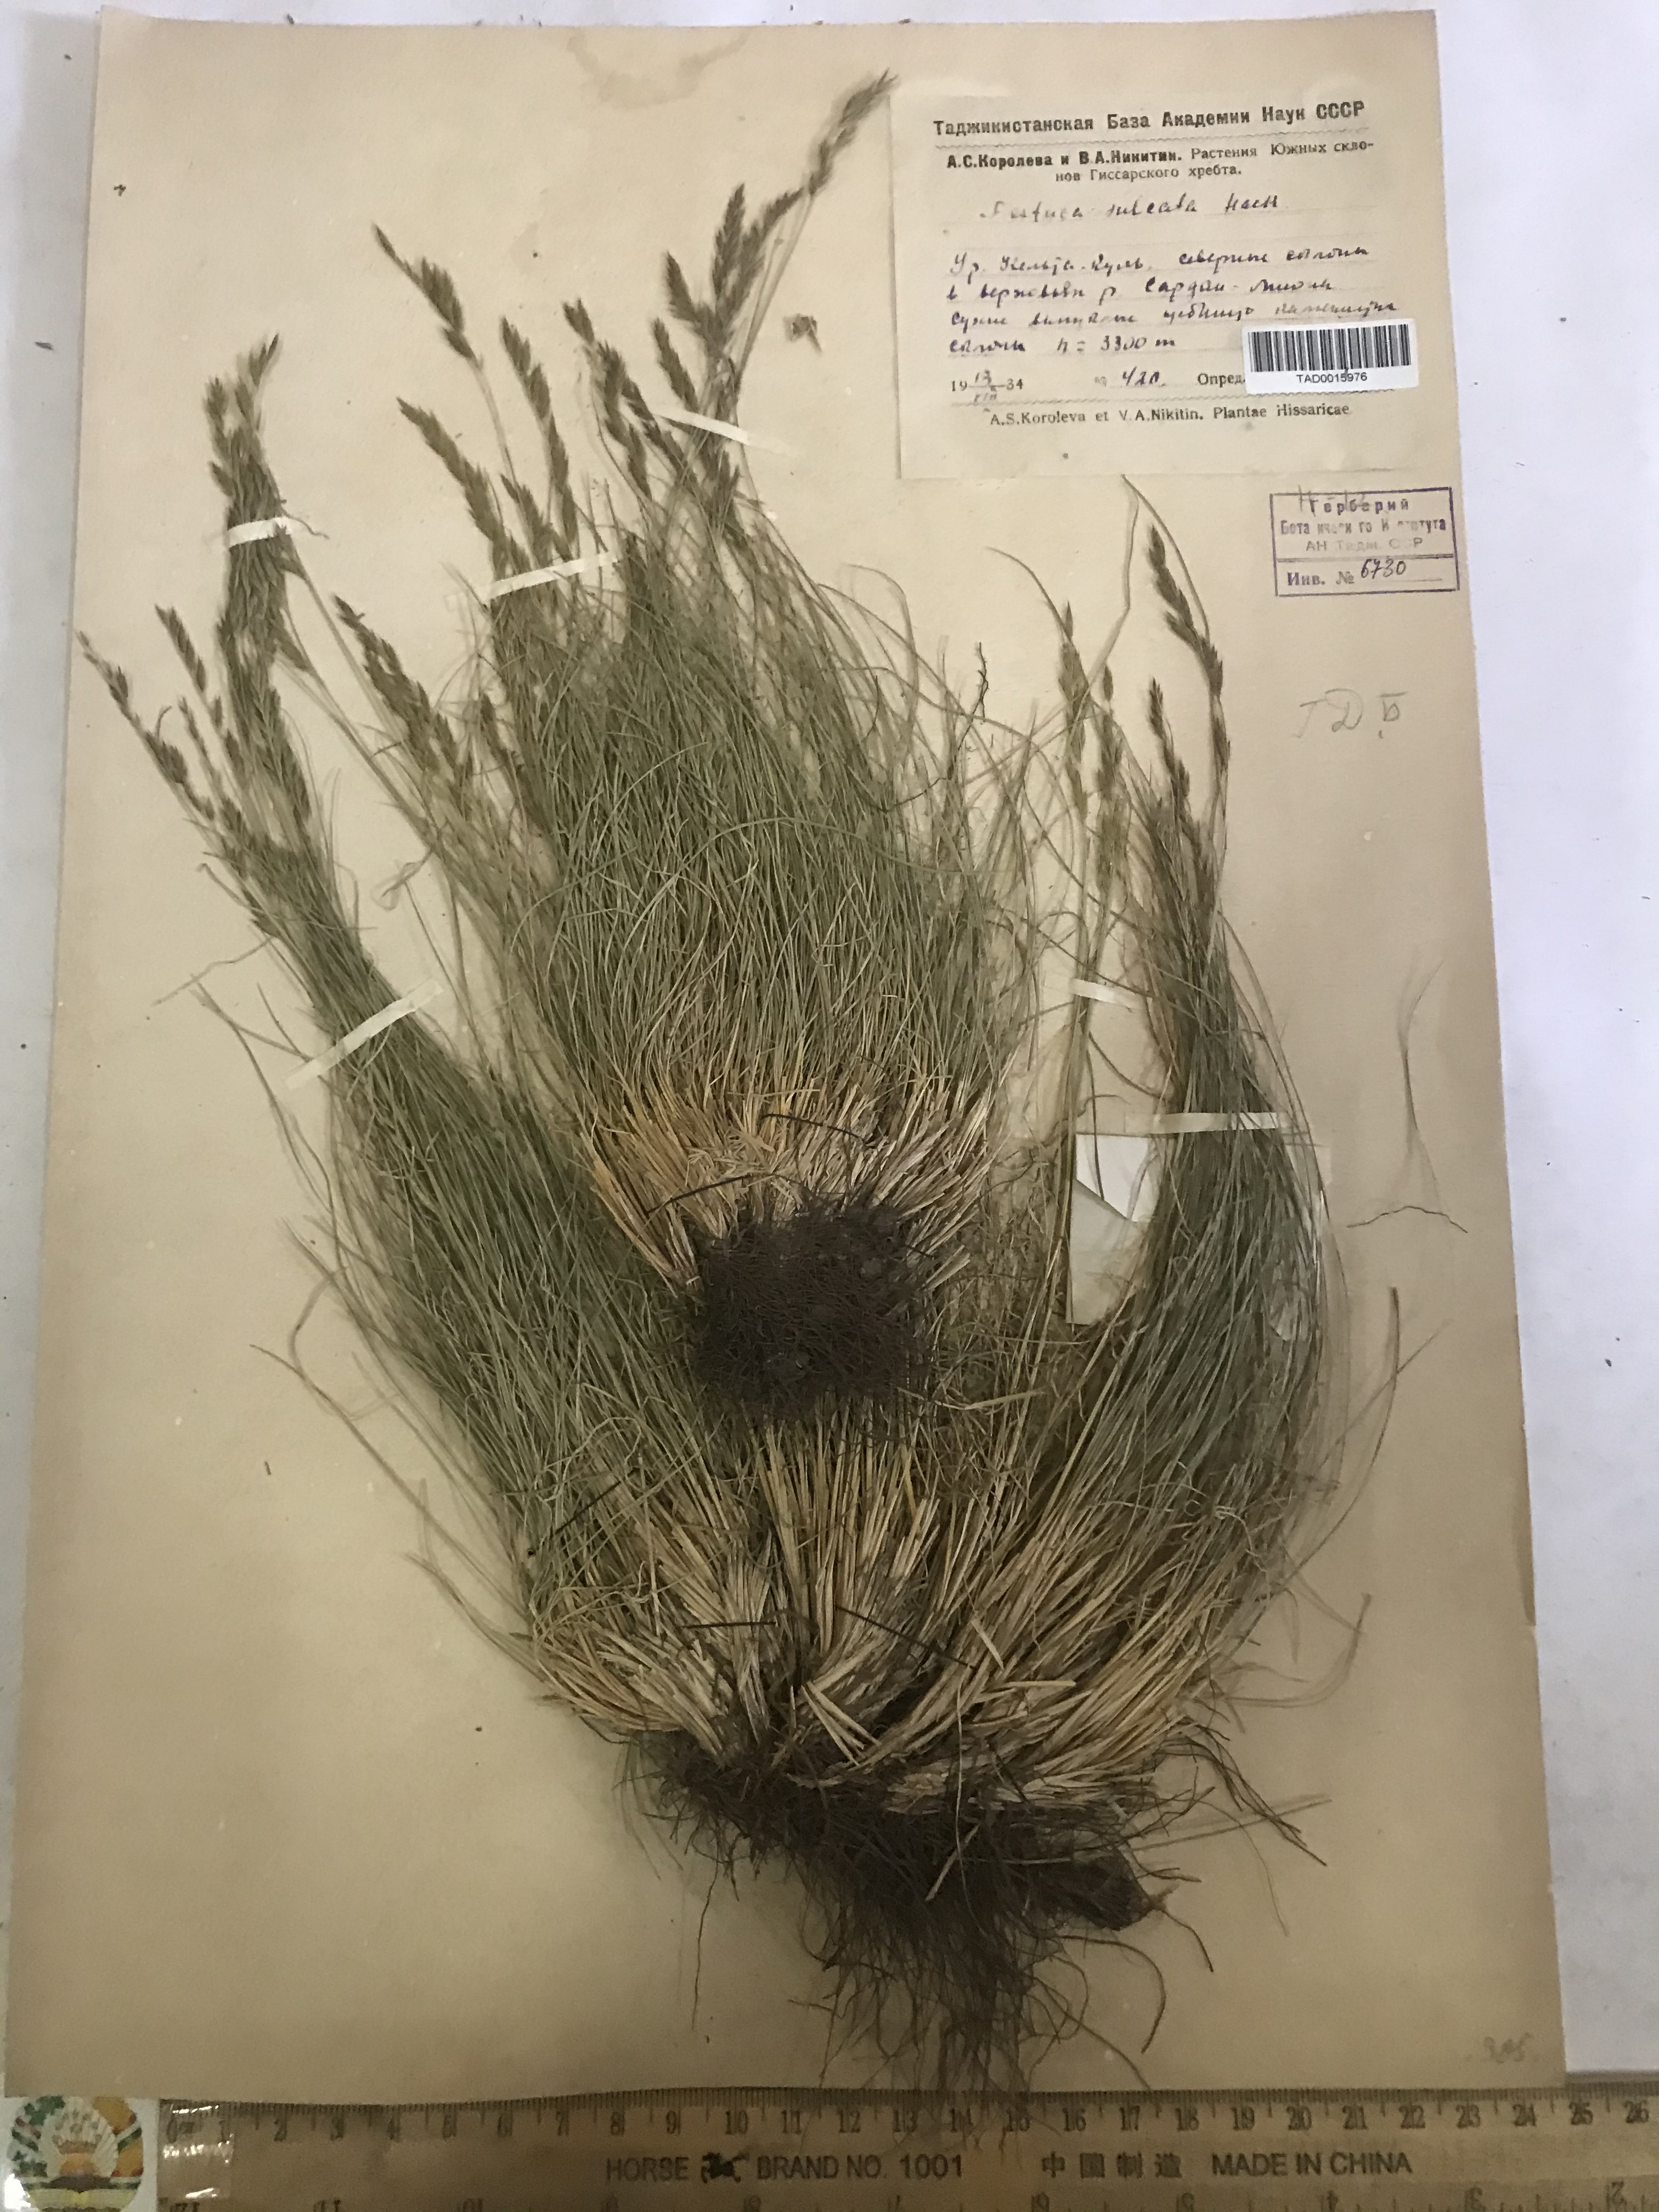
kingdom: Plantae
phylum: Tracheophyta
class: Liliopsida
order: Poales
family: Poaceae
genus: Festuca
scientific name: Festuca sulcata
